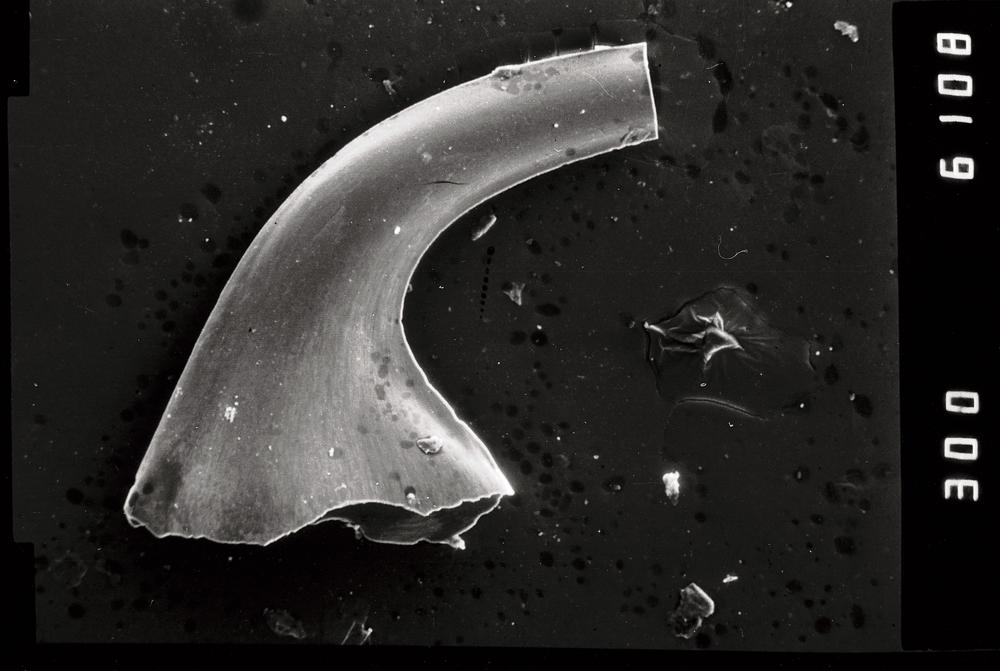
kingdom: Animalia
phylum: Annelida
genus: Paltodus
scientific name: Paltodus
